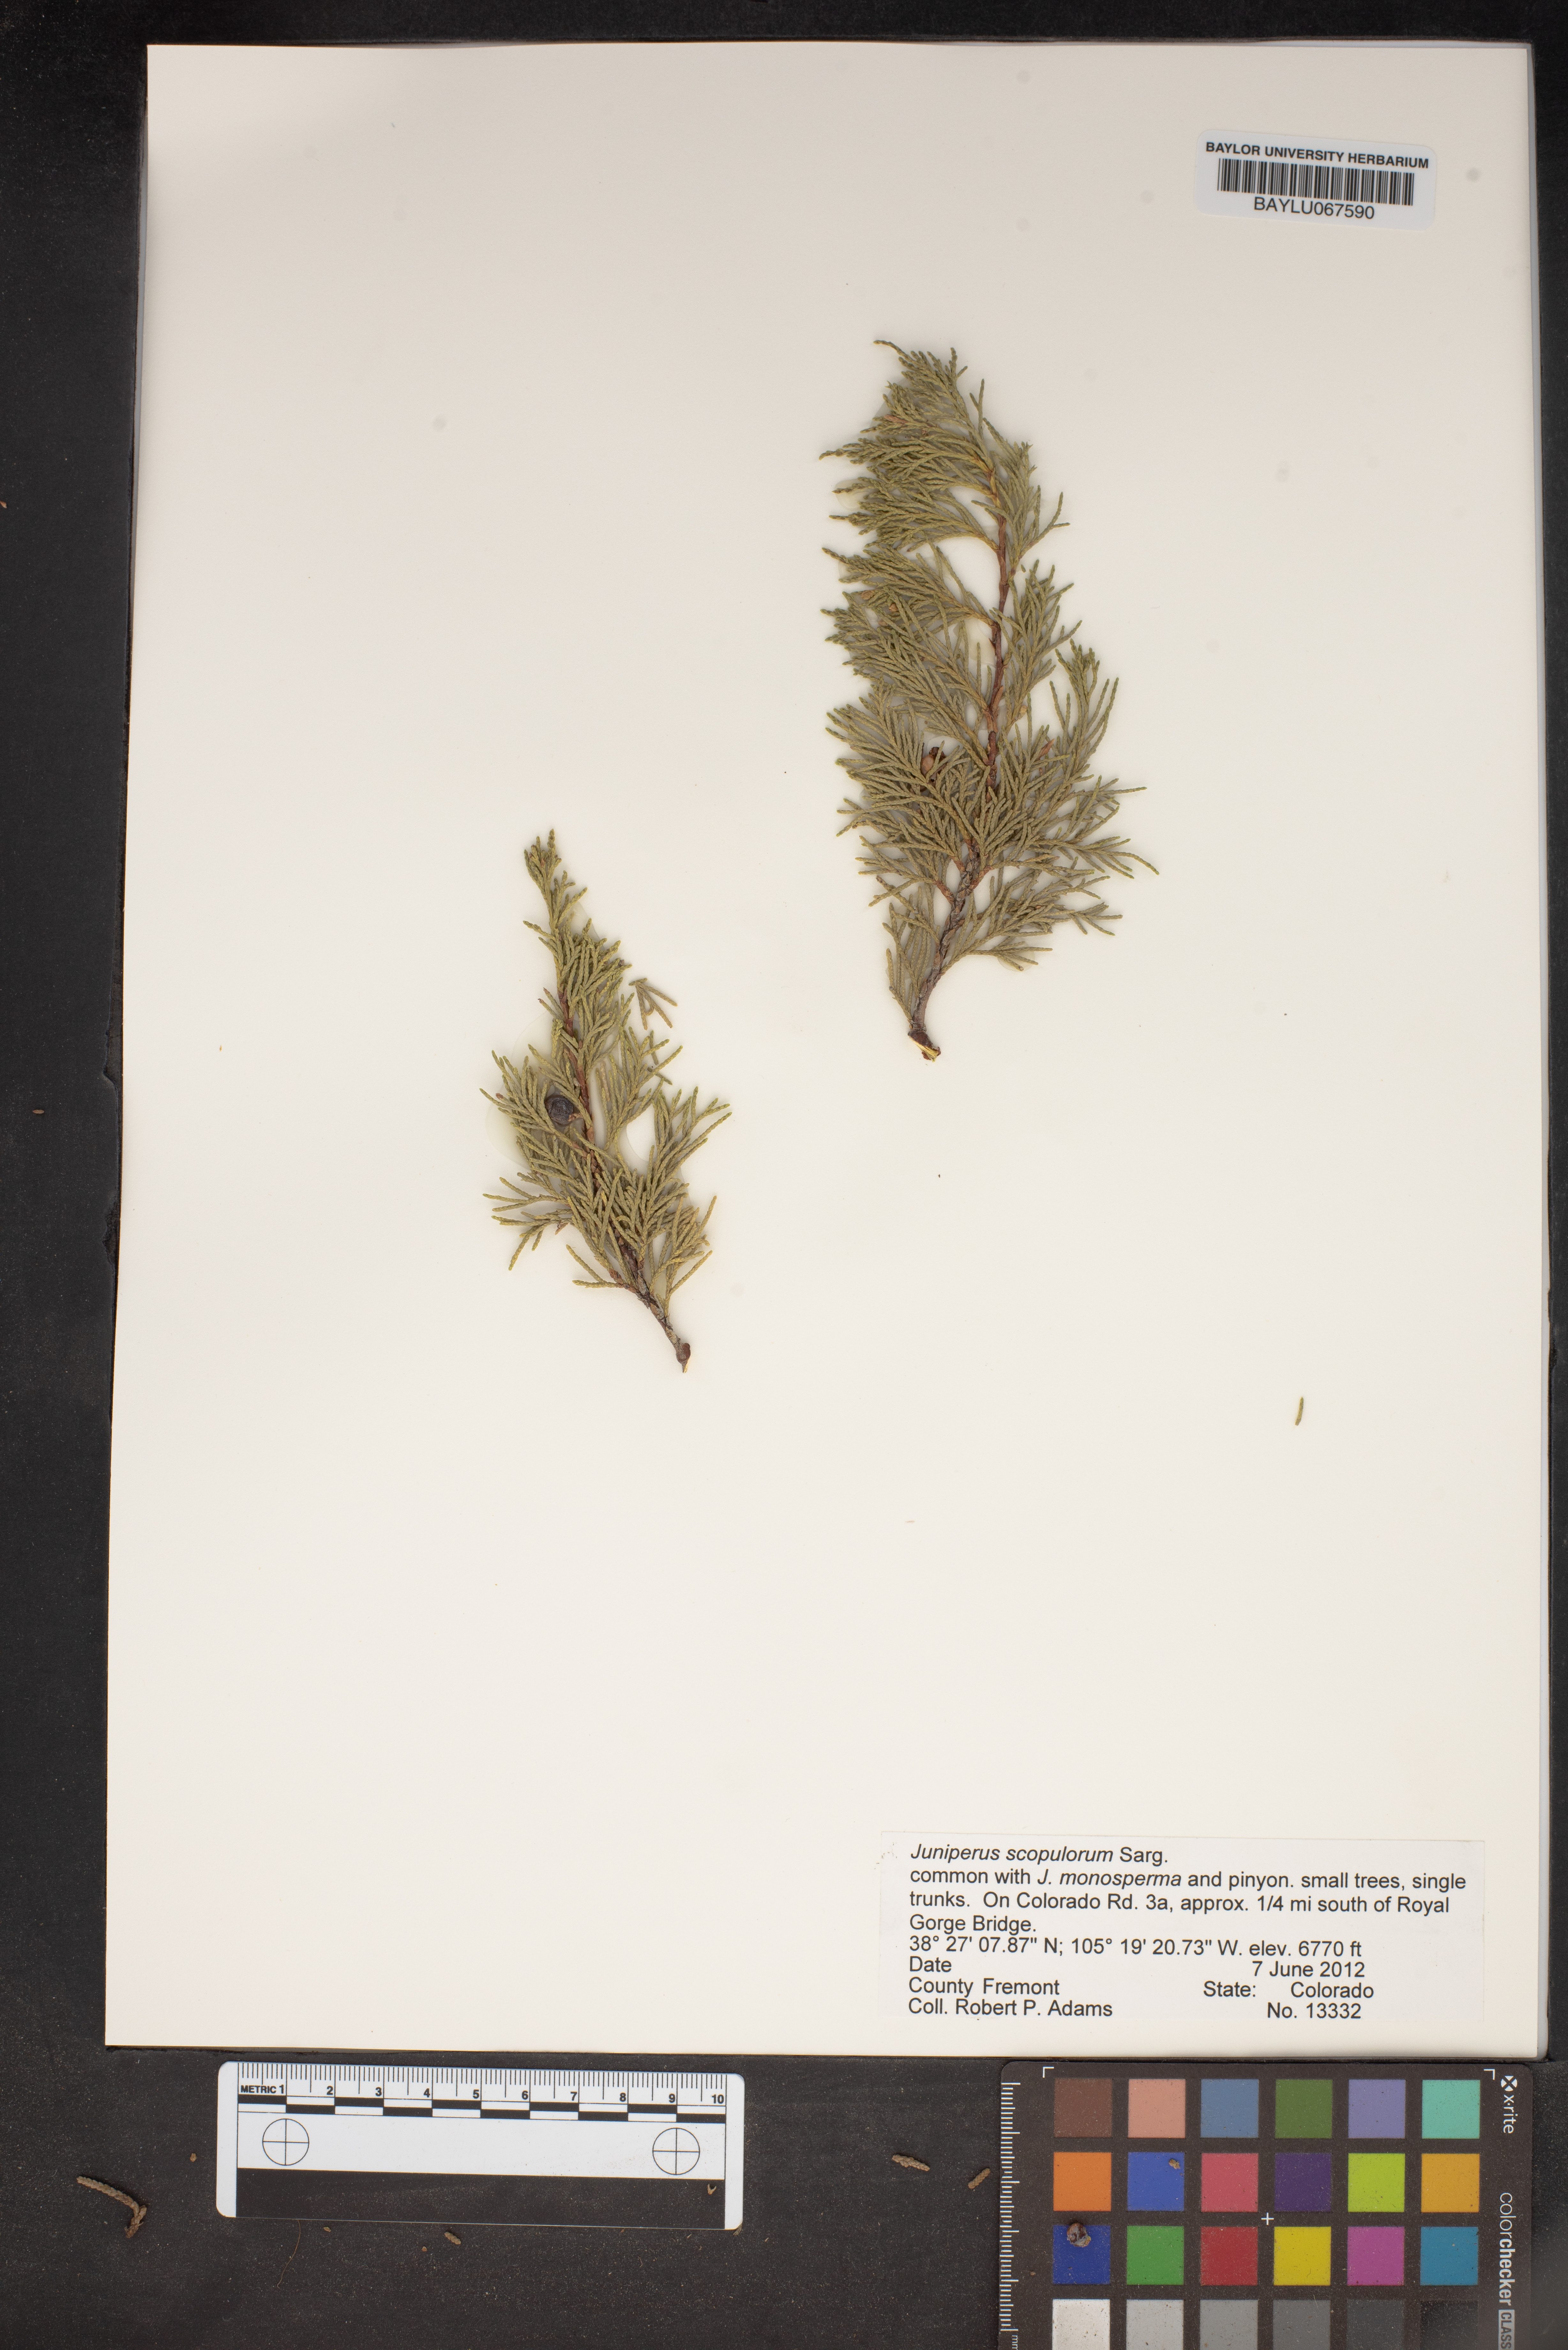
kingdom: Plantae
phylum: Tracheophyta
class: Pinopsida
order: Pinales
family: Cupressaceae
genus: Juniperus
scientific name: Juniperus scopulorum
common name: Rocky mountain juniper
